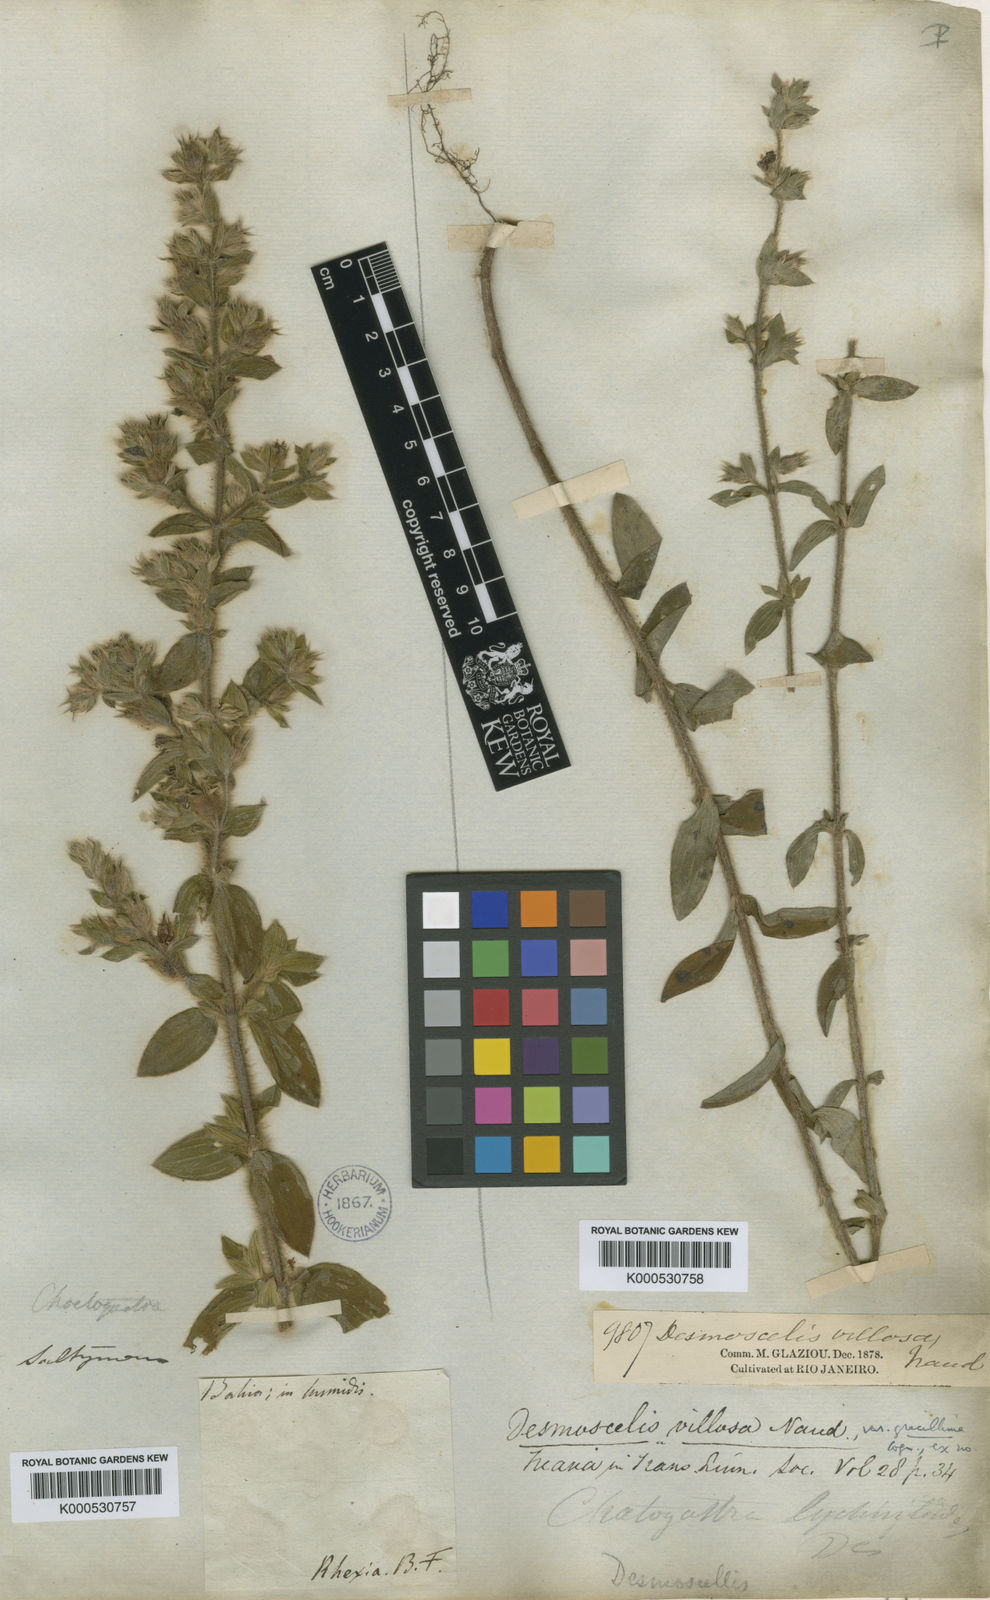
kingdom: Plantae
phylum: Tracheophyta
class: Magnoliopsida
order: Myrtales
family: Melastomataceae
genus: Desmoscelis
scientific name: Desmoscelis villosa
